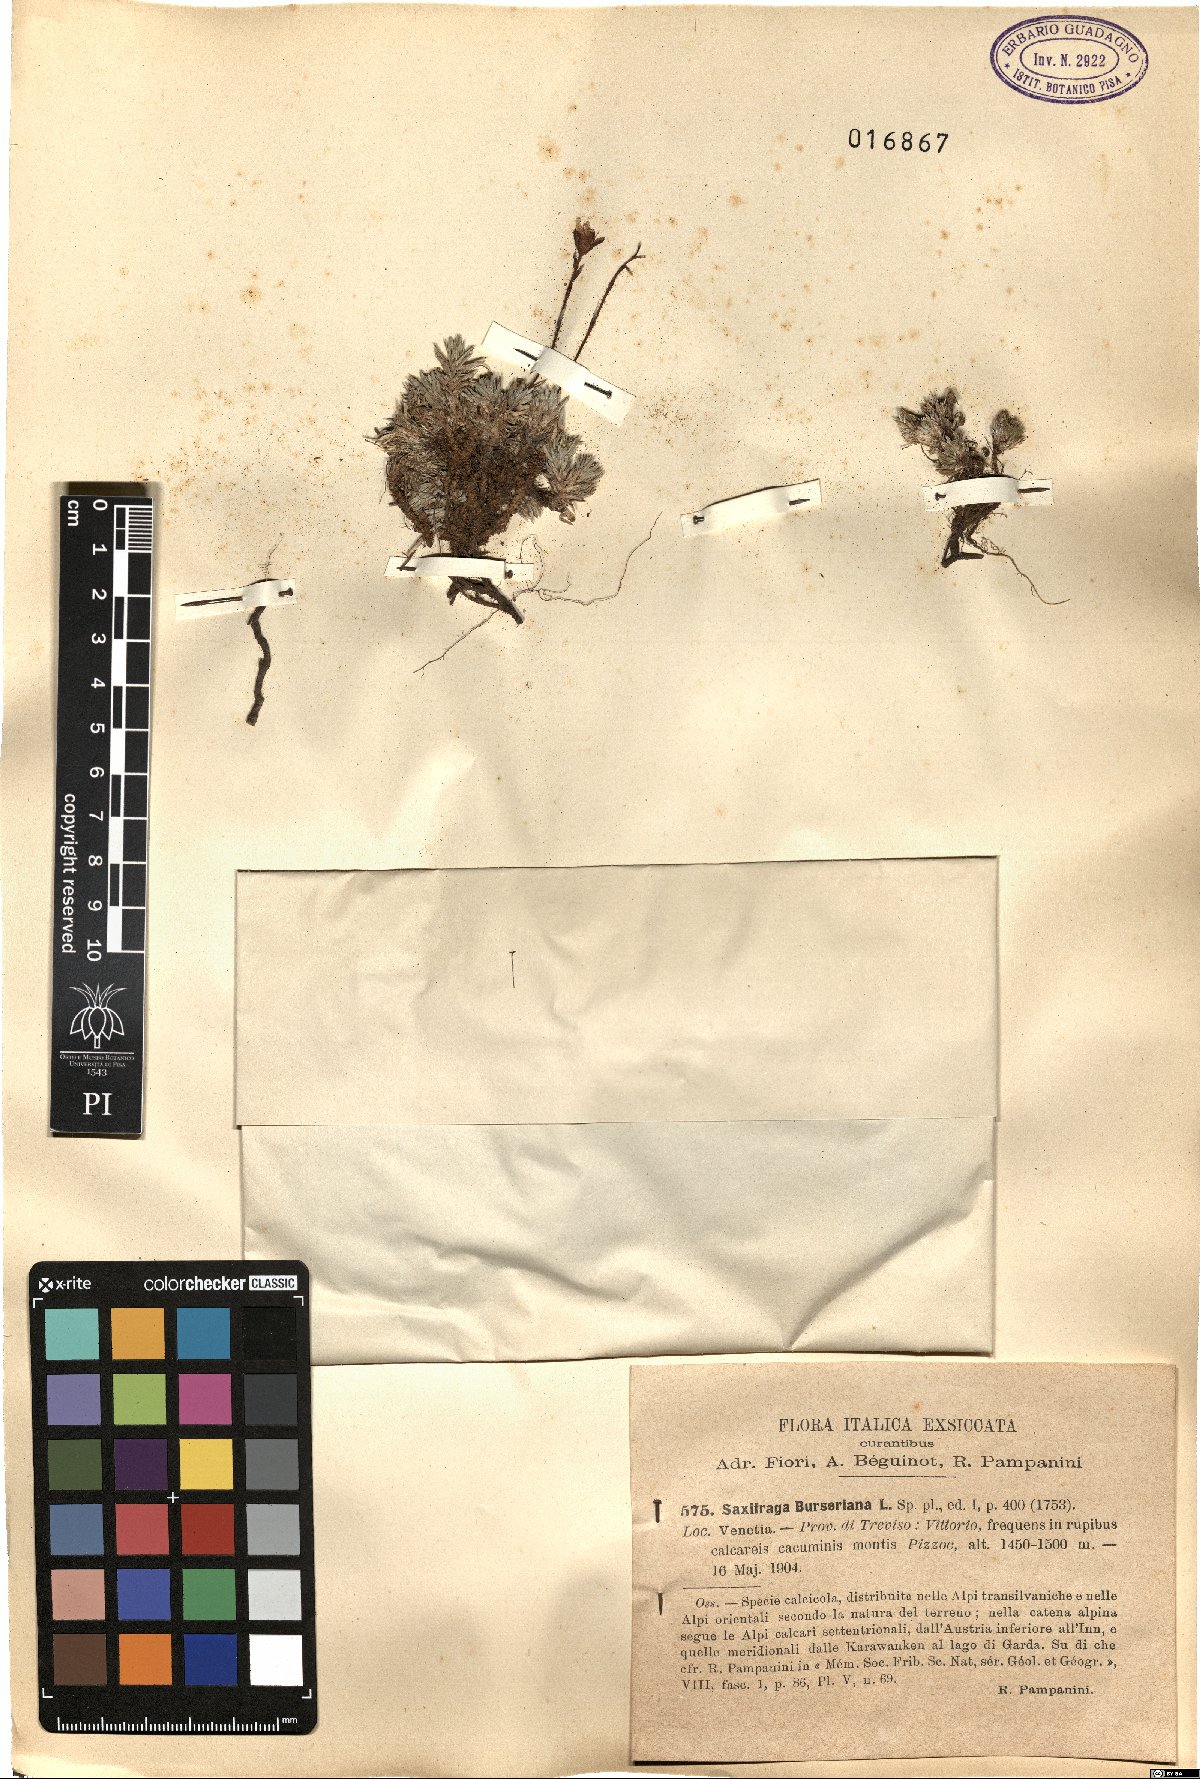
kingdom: Plantae
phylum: Tracheophyta
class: Magnoliopsida
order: Saxifragales
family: Saxifragaceae
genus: Saxifraga
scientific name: Saxifraga burseriana
